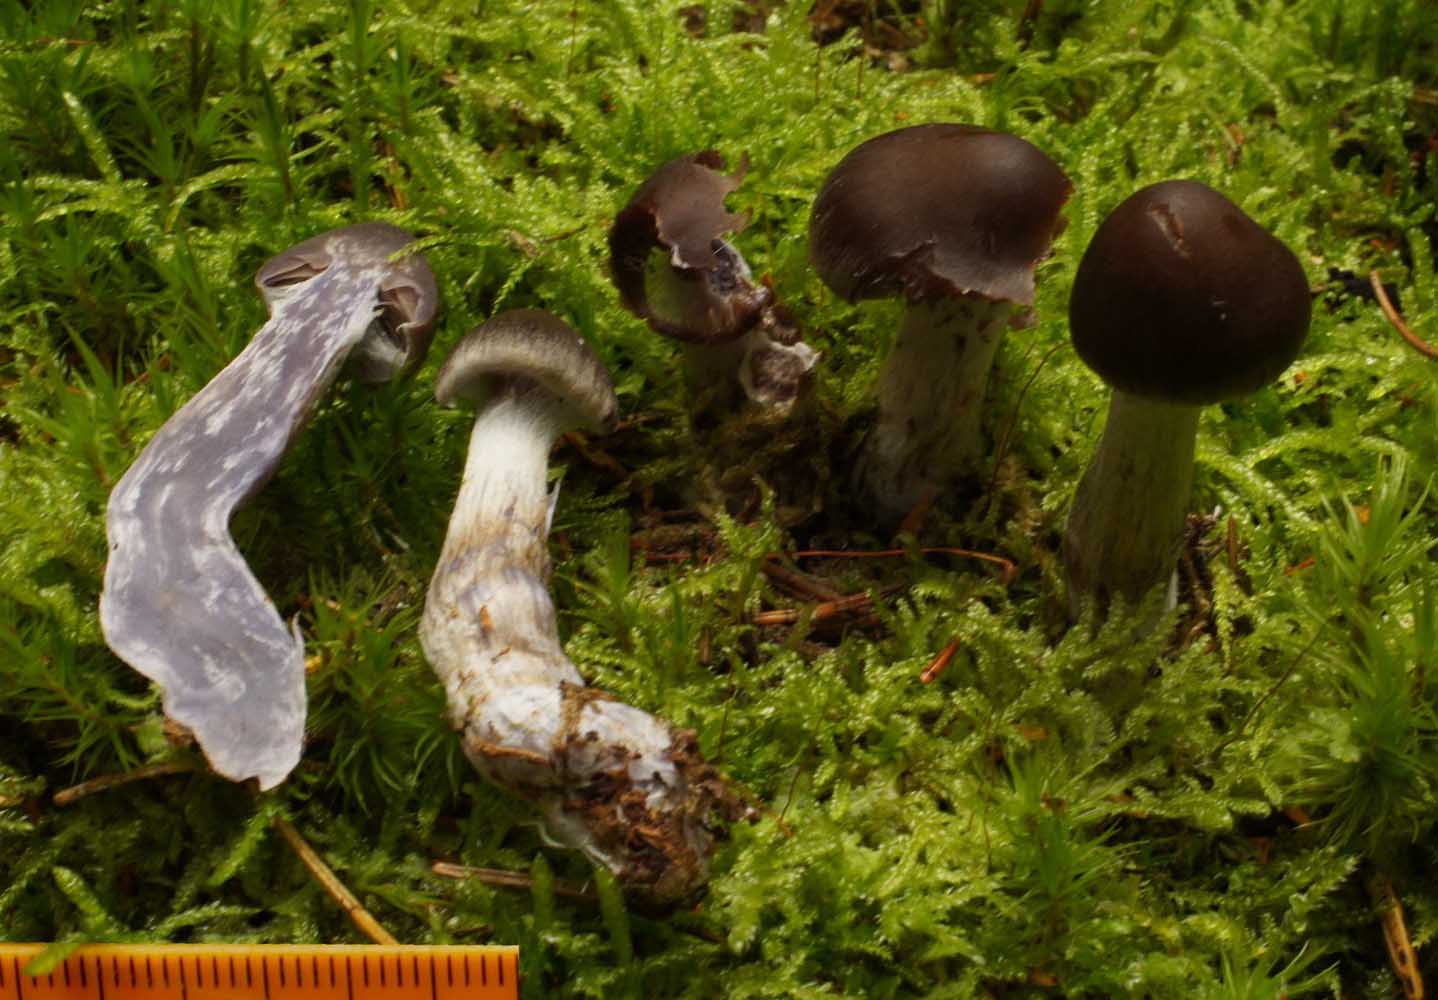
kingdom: Fungi
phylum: Basidiomycota
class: Agaricomycetes
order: Agaricales
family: Cortinariaceae
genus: Cortinarius
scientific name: Cortinarius brunneus
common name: sortbrun slørhat
